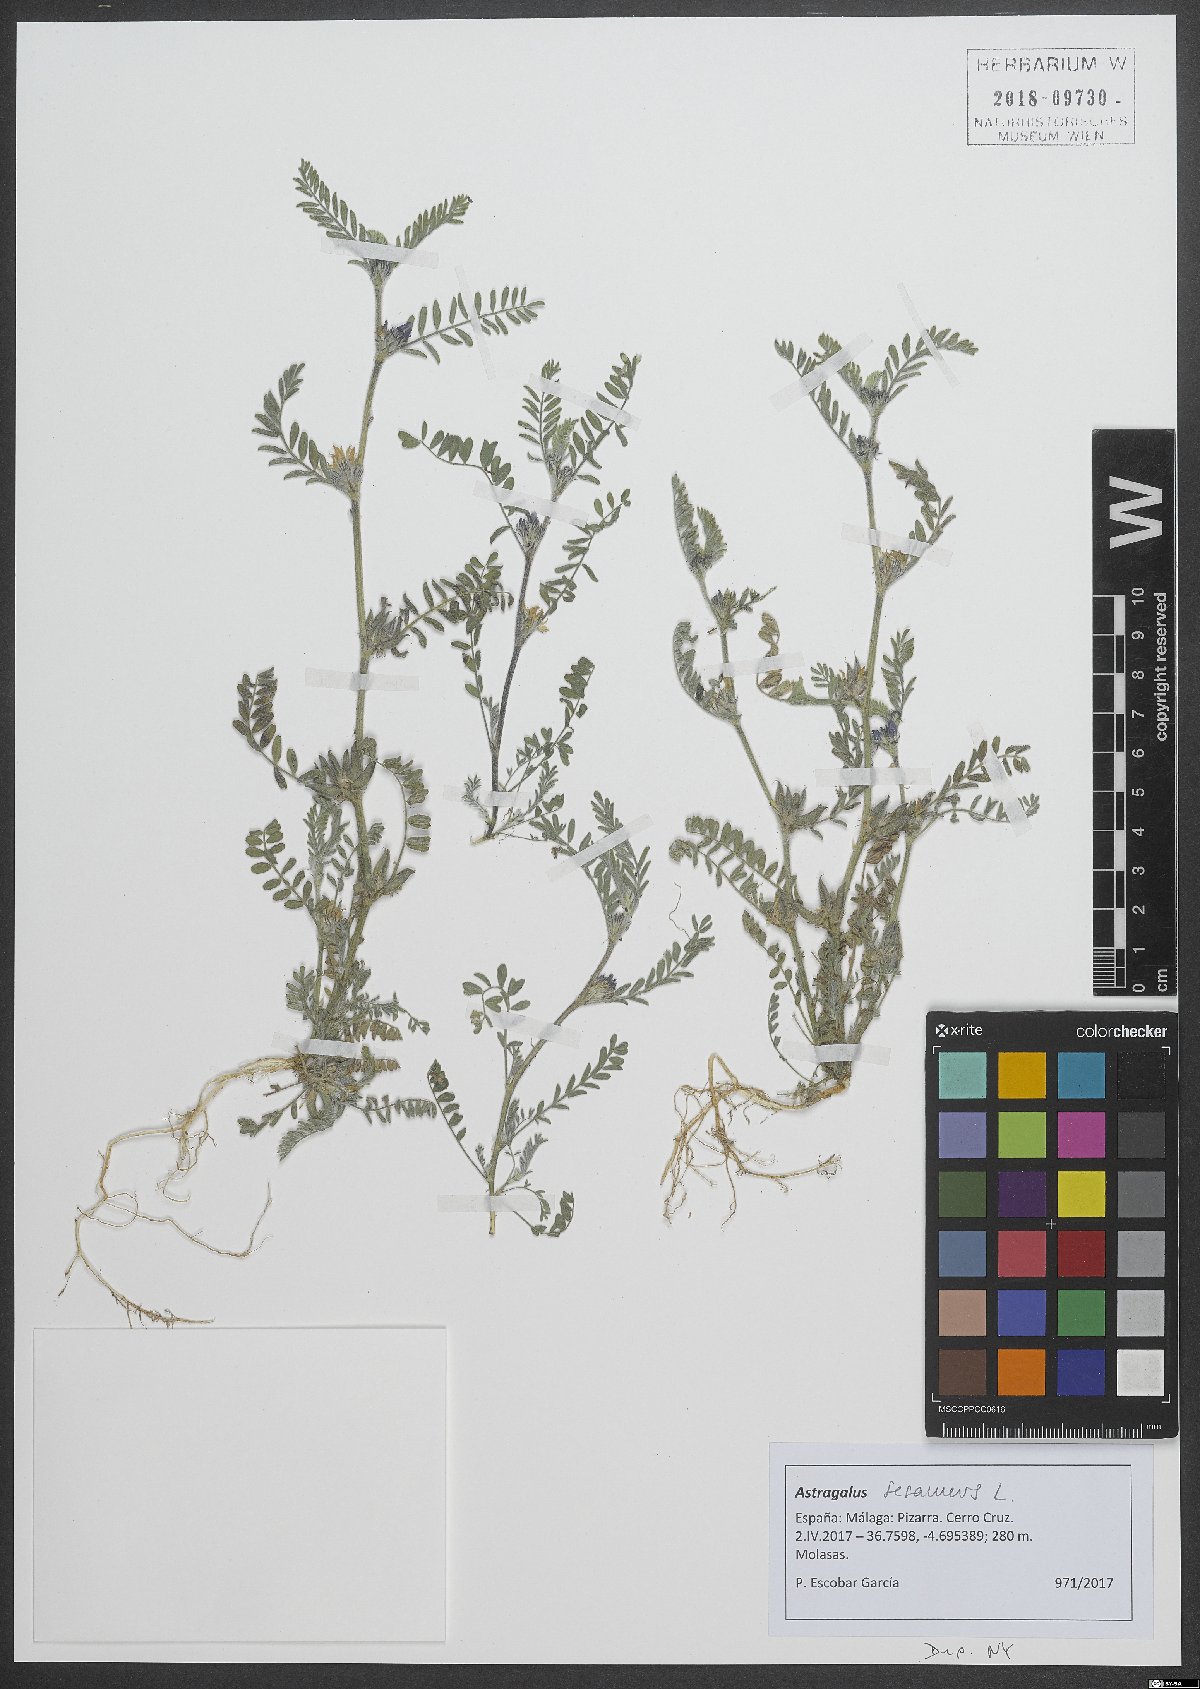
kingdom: Plantae
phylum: Tracheophyta
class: Magnoliopsida
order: Fabales
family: Fabaceae
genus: Astragalus
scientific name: Astragalus sesameus
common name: Purple milk-vetch
